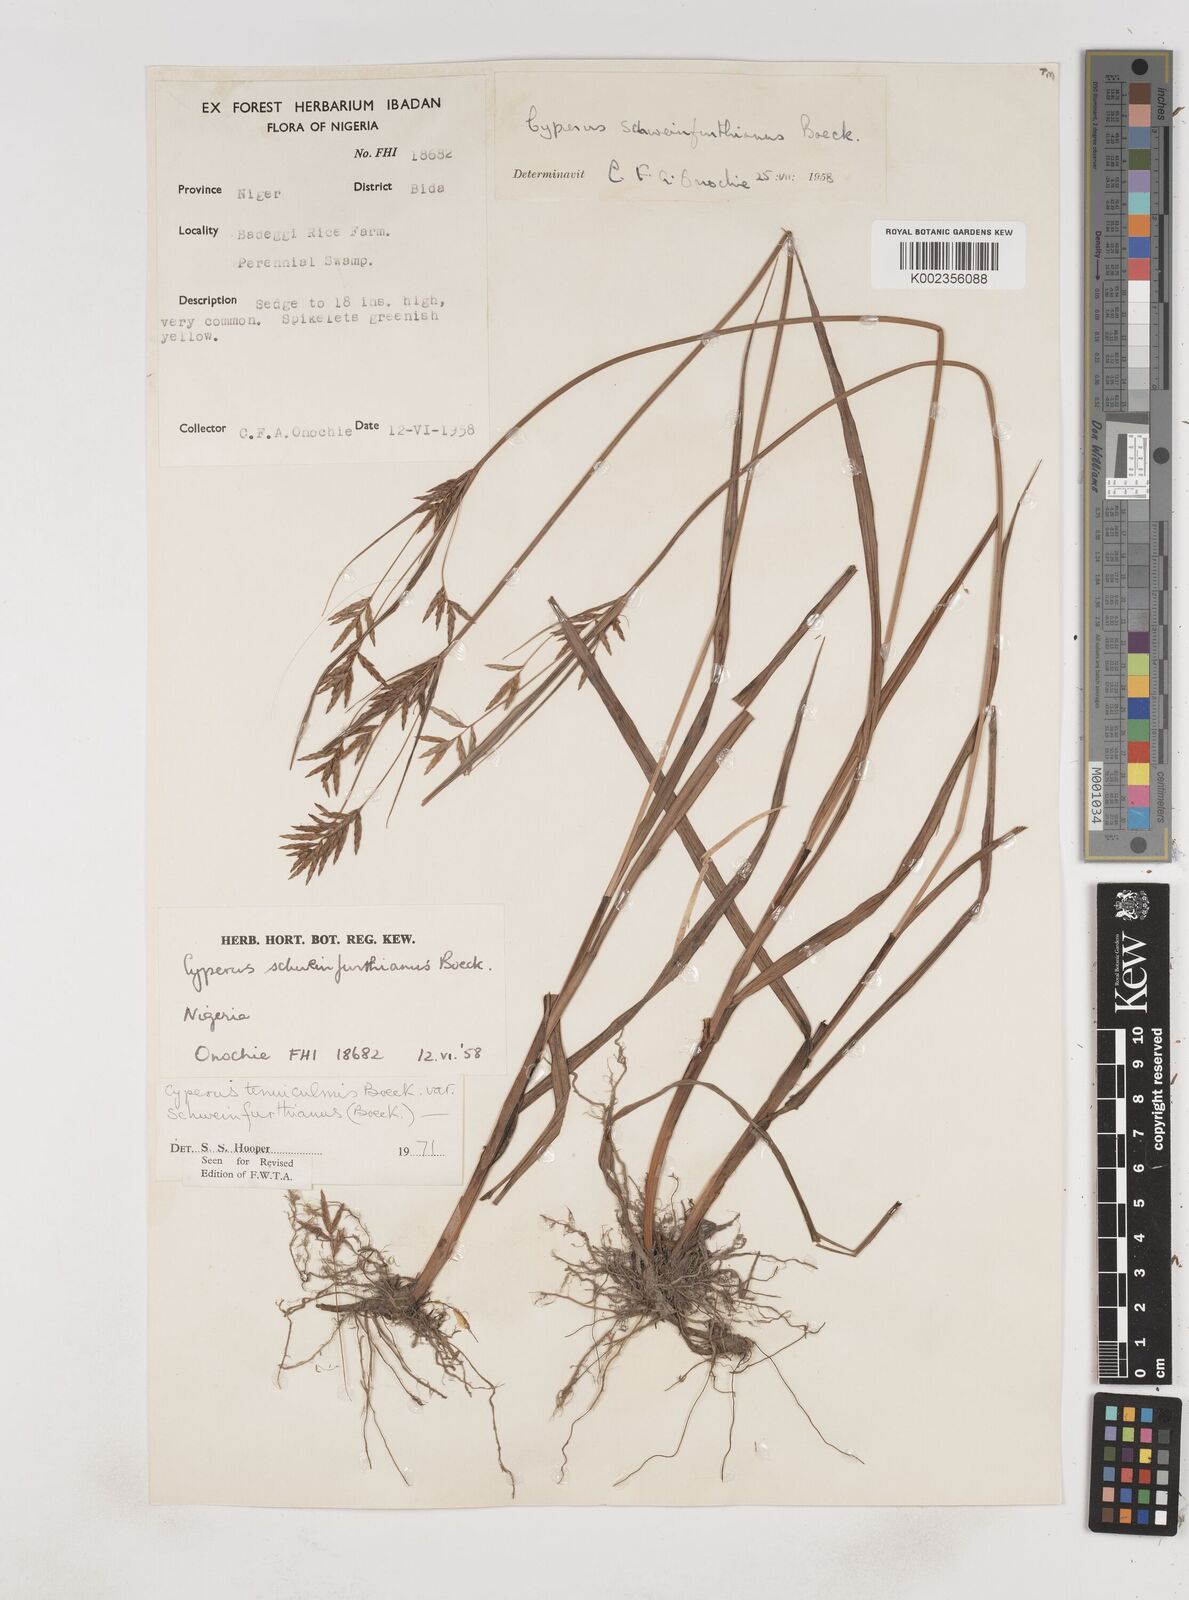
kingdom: Plantae
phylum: Tracheophyta
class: Liliopsida
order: Poales
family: Cyperaceae
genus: Cyperus
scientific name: Cyperus tenuiculmis
